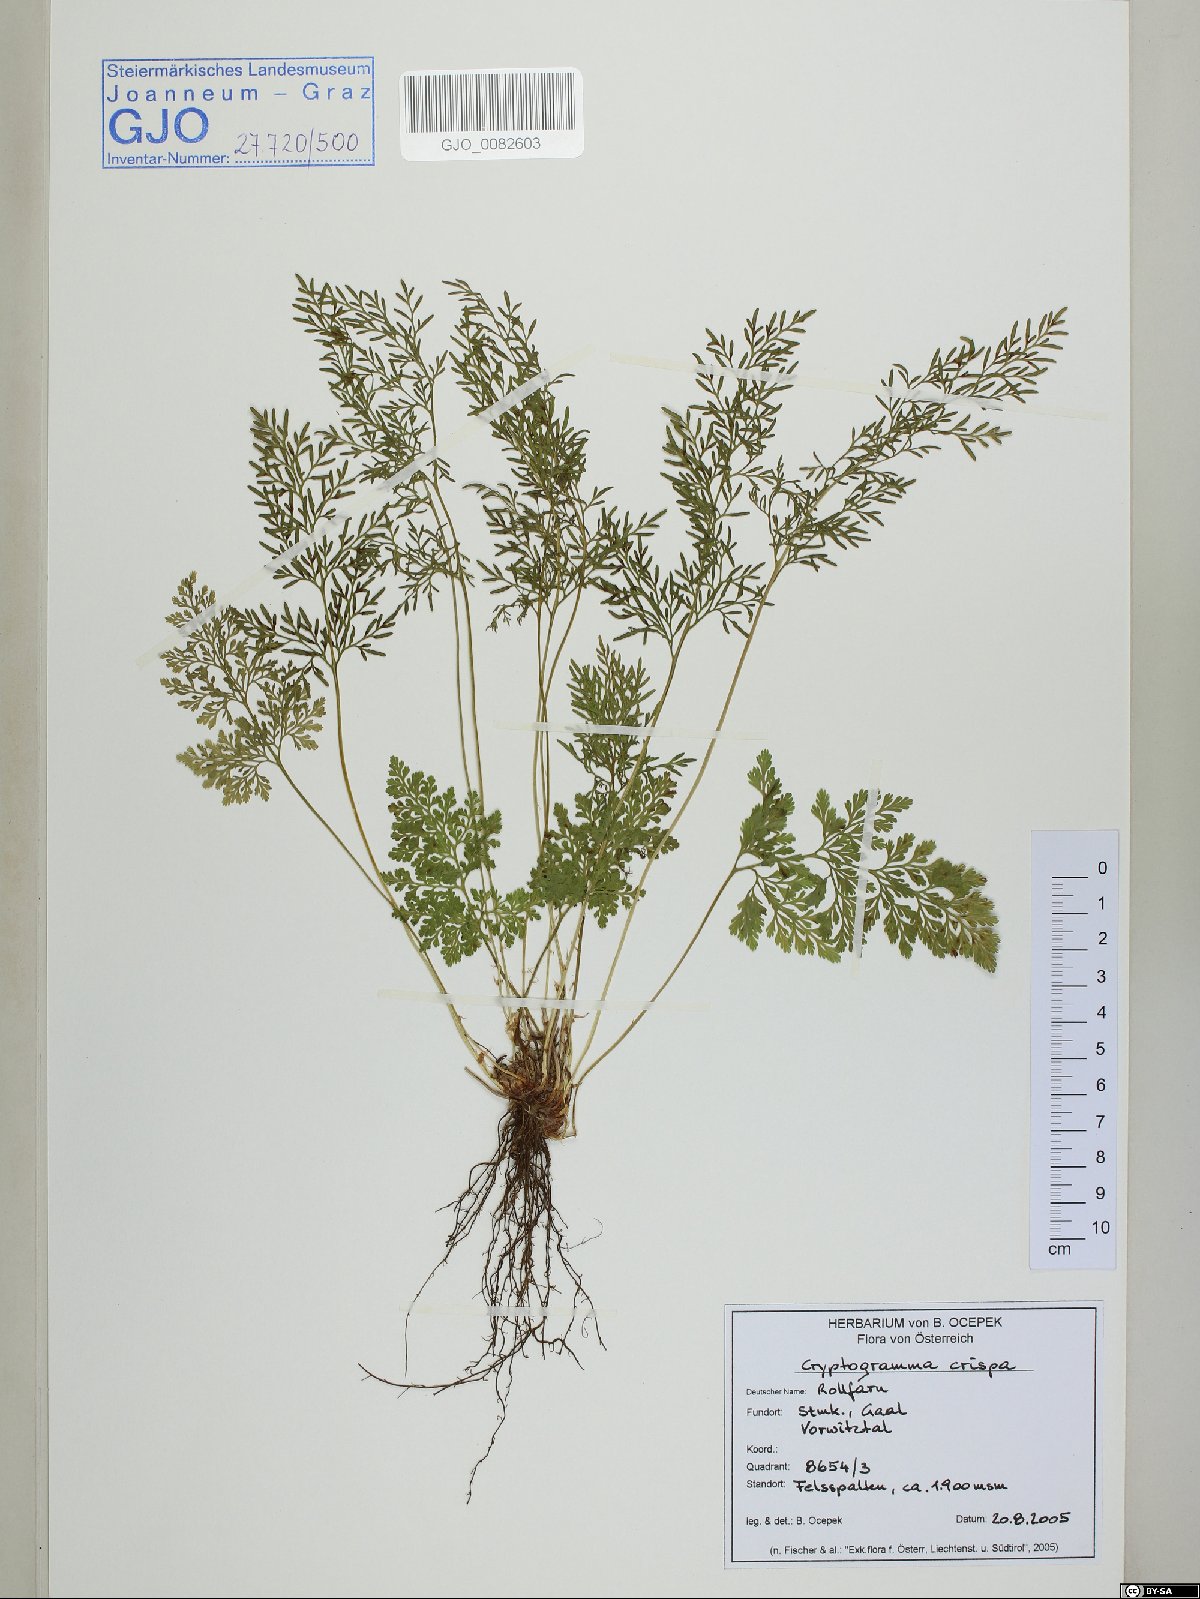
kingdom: Plantae
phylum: Tracheophyta
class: Polypodiopsida
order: Polypodiales
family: Pteridaceae
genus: Cryptogramma
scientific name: Cryptogramma crispa
